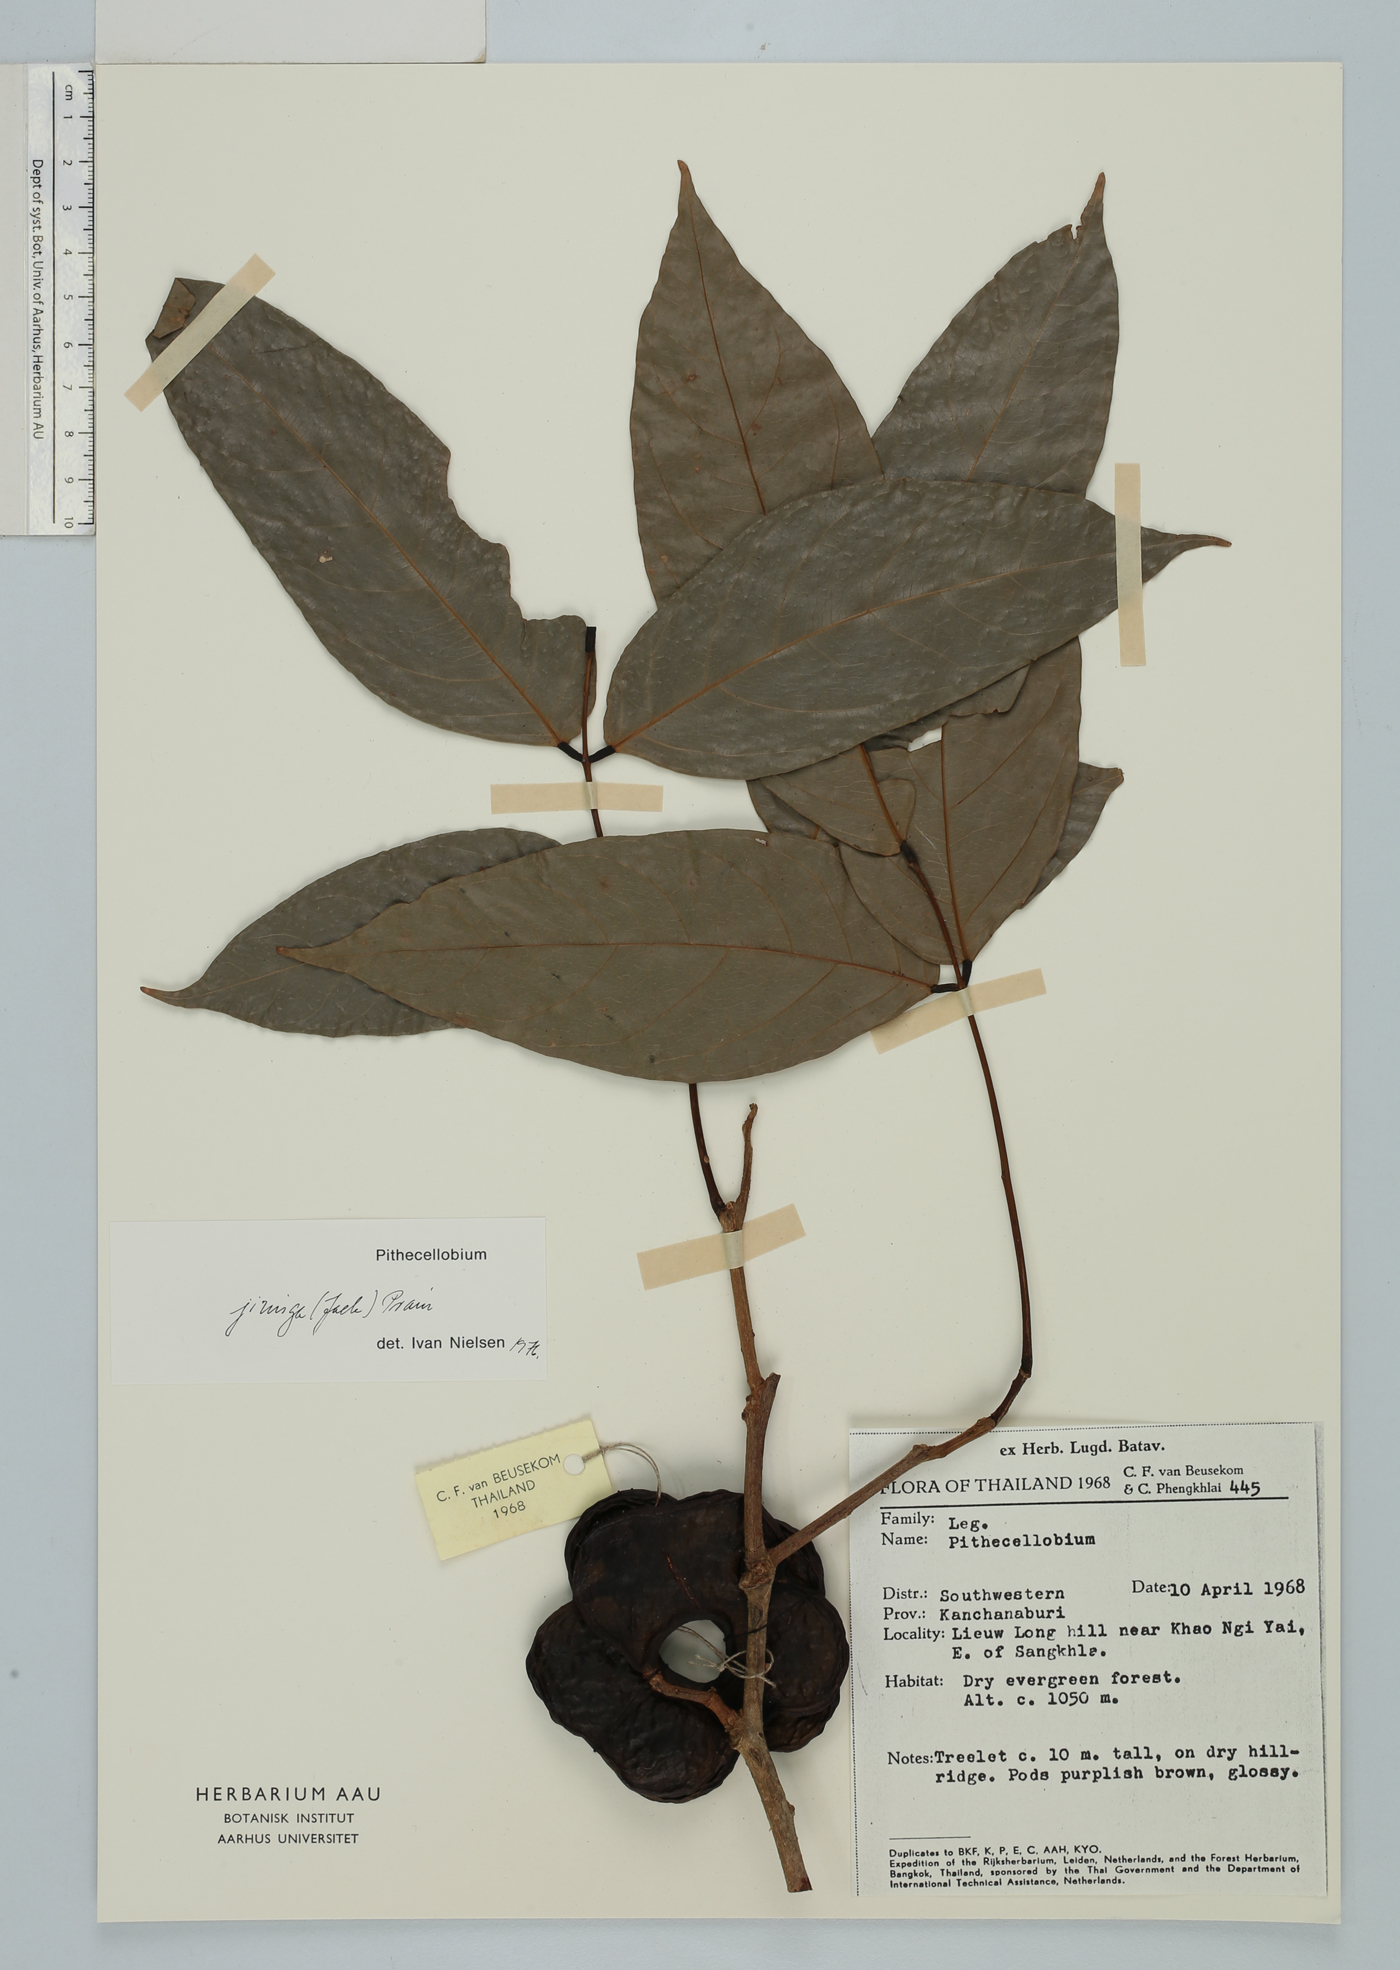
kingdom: Plantae
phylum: Tracheophyta
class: Magnoliopsida
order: Fabales
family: Fabaceae
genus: Archidendron
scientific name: Archidendron jiringa
